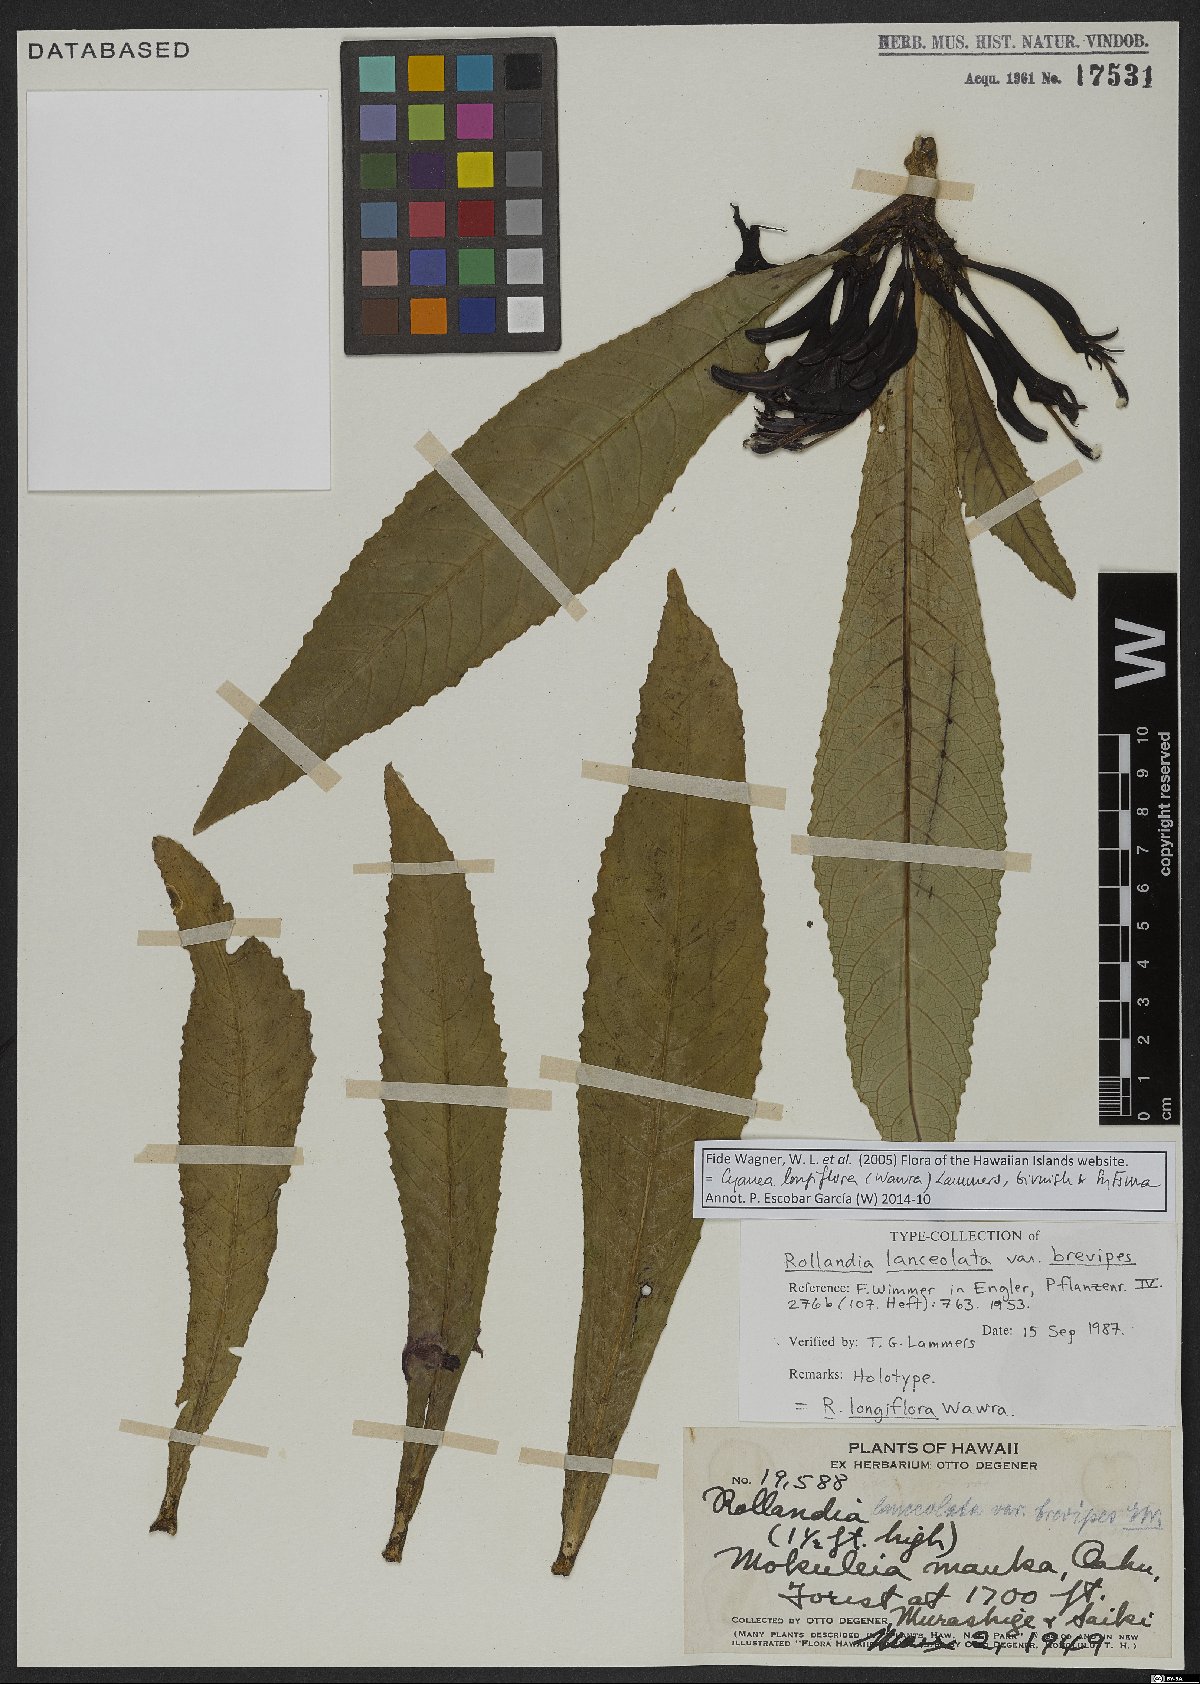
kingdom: Plantae
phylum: Tracheophyta
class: Magnoliopsida
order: Asterales
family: Campanulaceae
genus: Cyanea
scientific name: Cyanea longiflora
